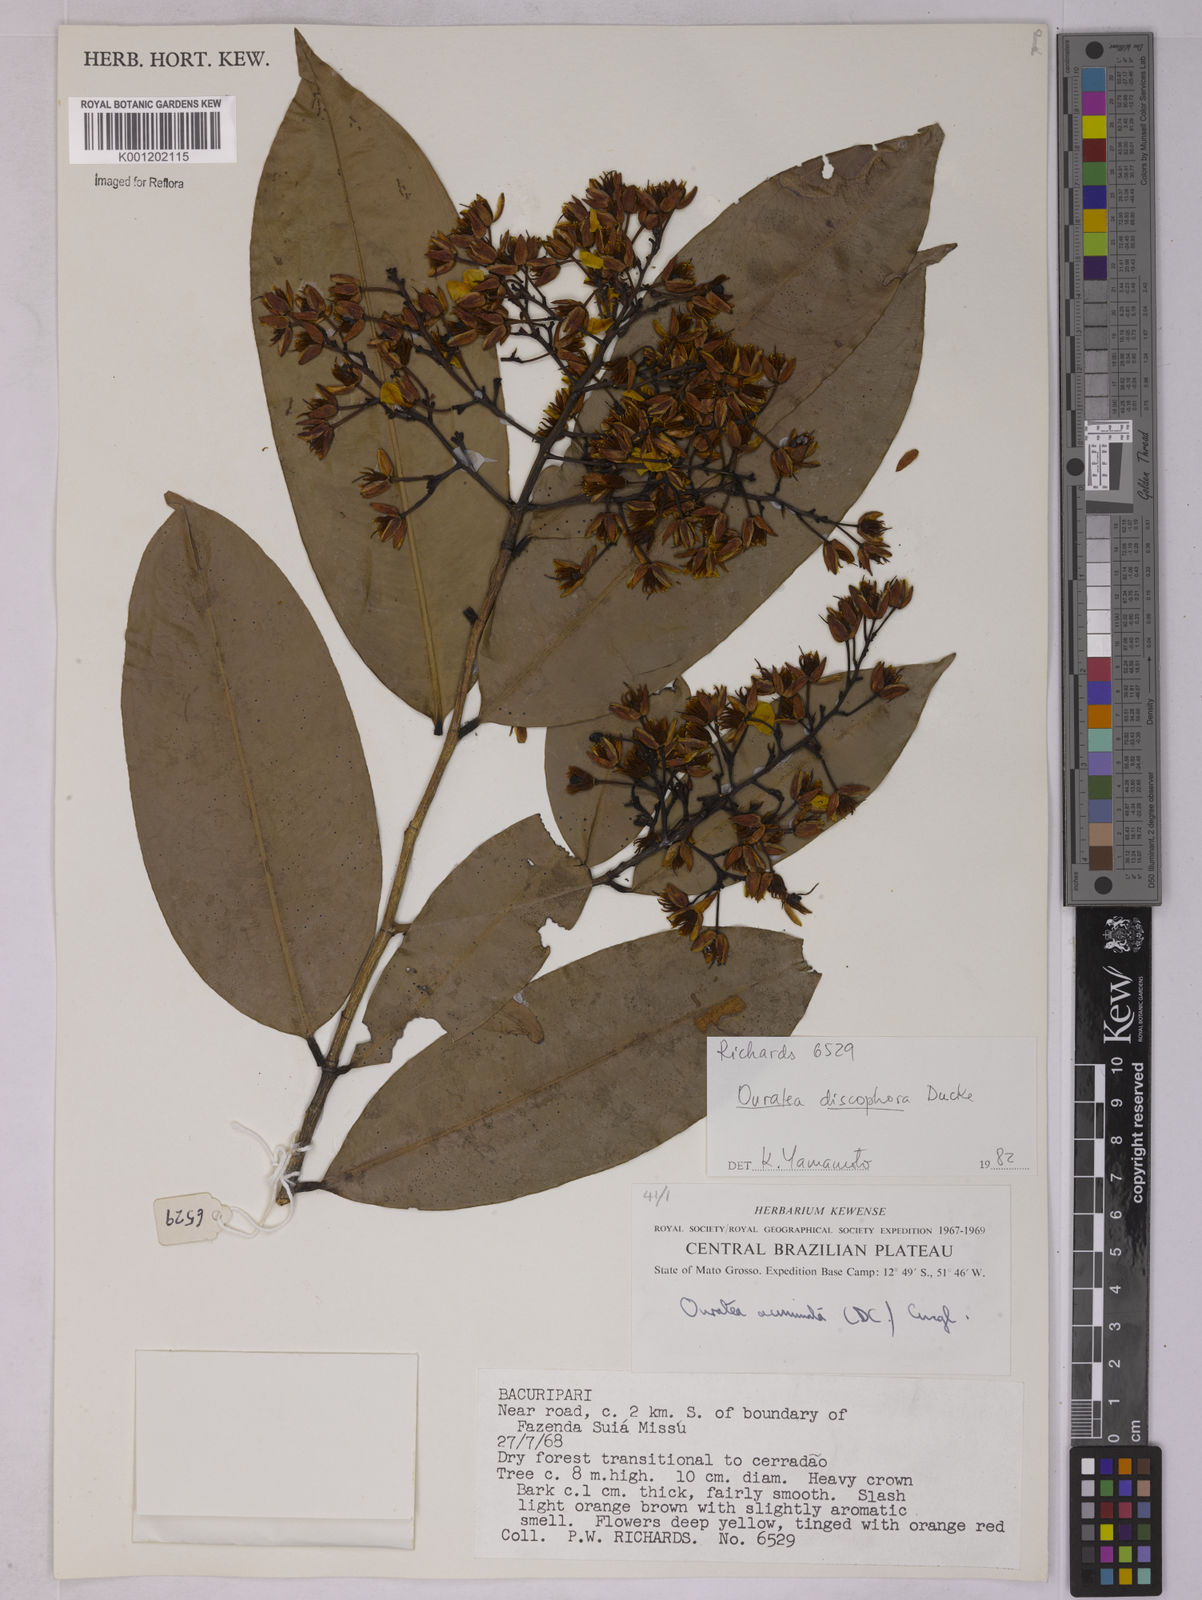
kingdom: Plantae
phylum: Tracheophyta
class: Magnoliopsida
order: Malpighiales
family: Ochnaceae
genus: Ouratea
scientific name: Ouratea discophora
